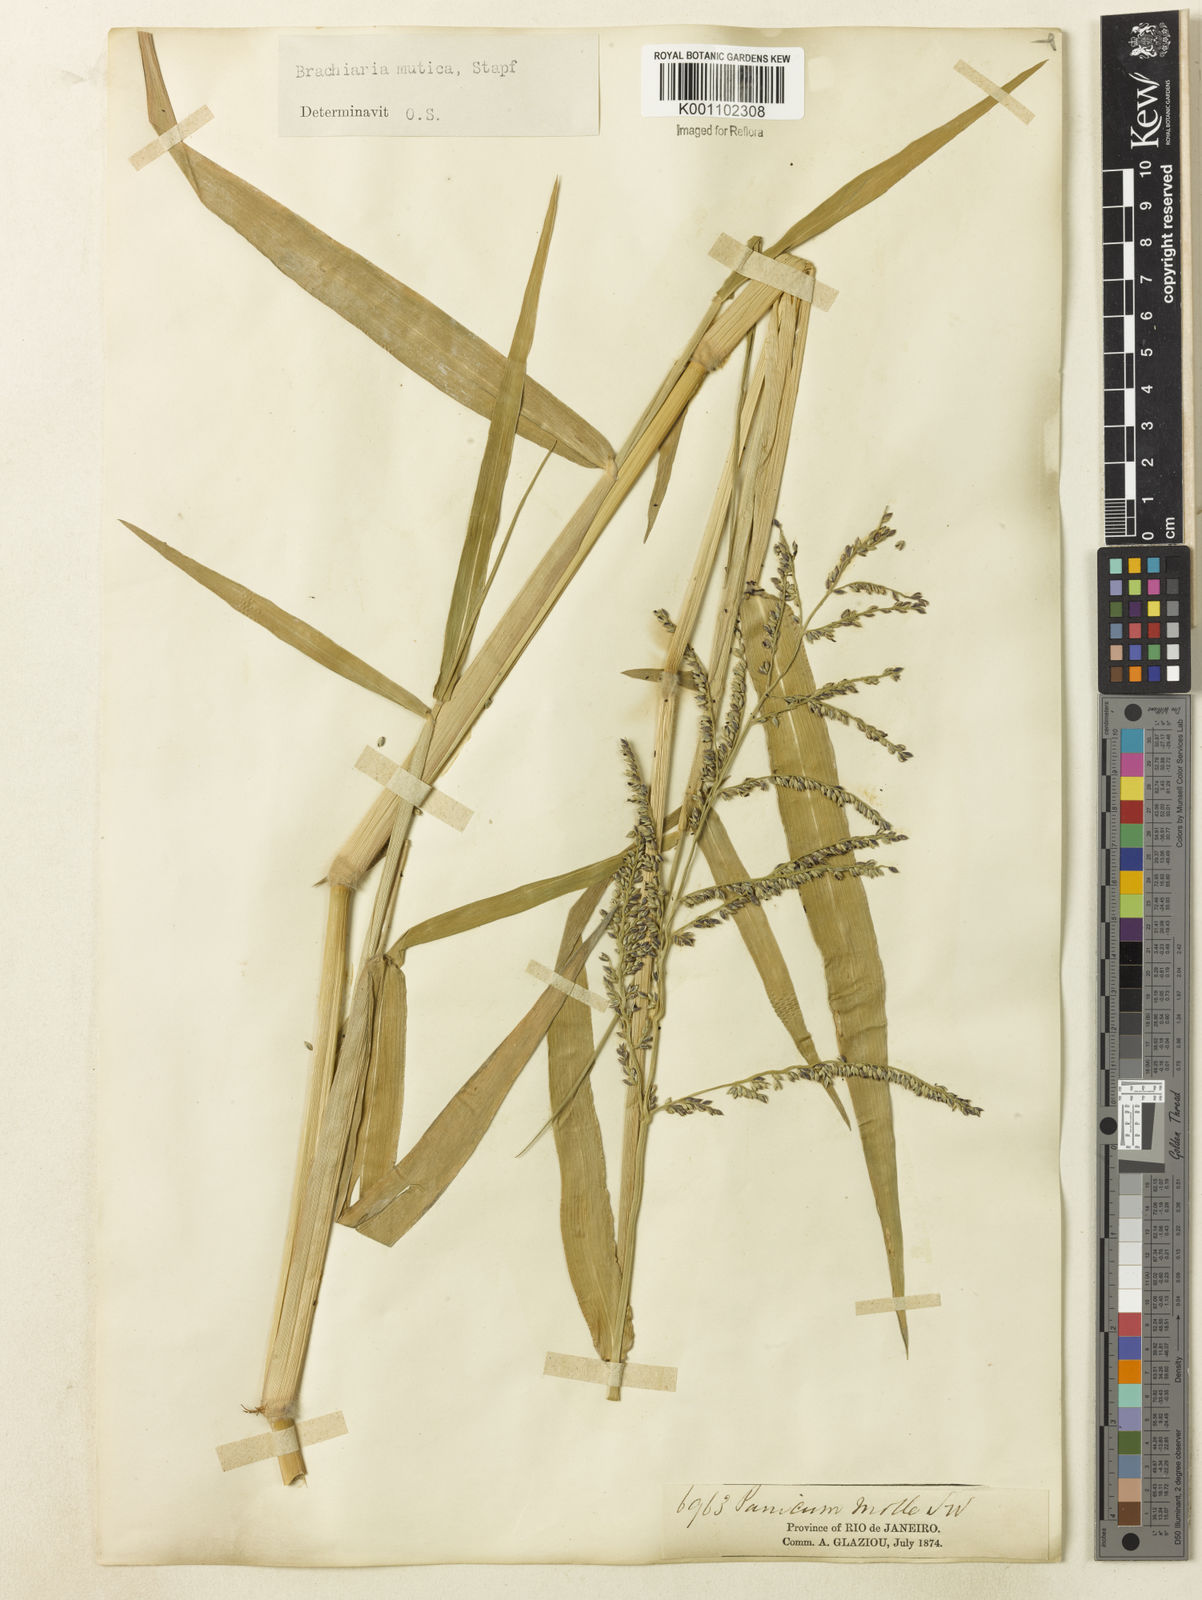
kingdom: Plantae
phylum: Tracheophyta
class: Liliopsida
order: Poales
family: Poaceae
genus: Urochloa
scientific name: Urochloa mutica
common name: Para grass
